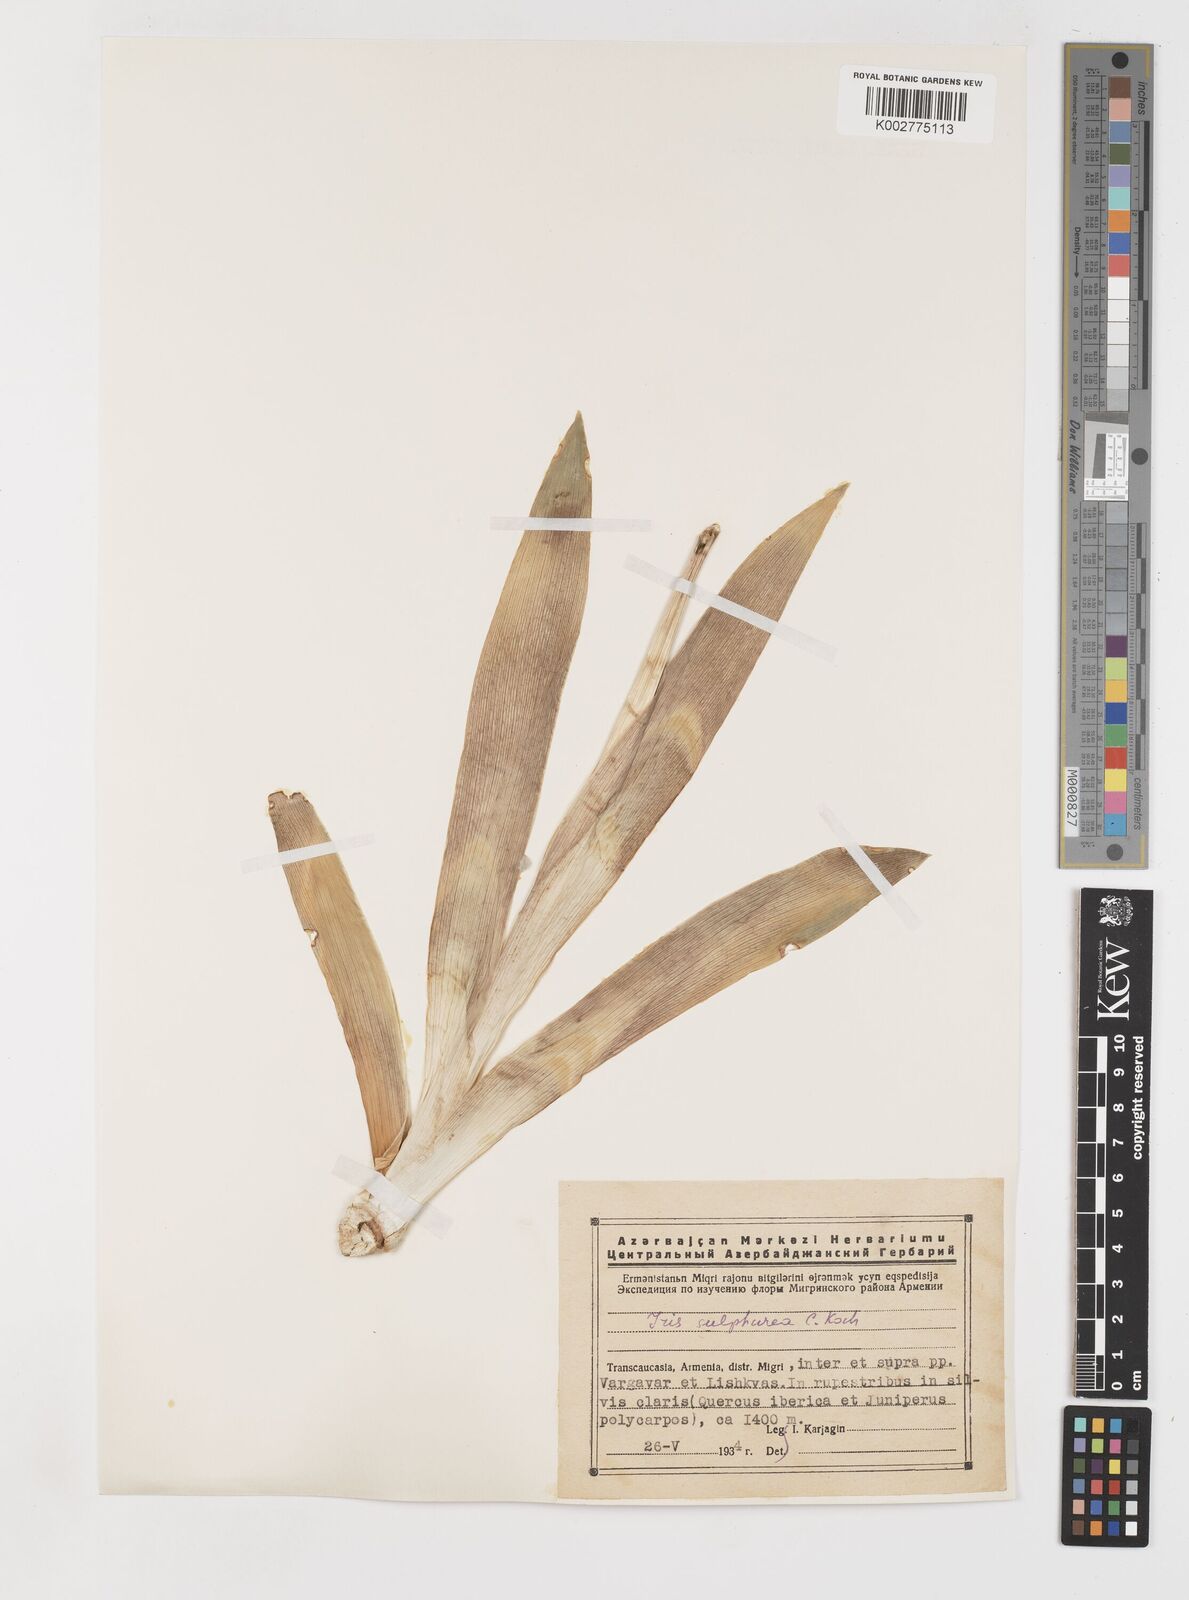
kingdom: Plantae
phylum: Tracheophyta
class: Liliopsida
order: Asparagales
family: Iridaceae
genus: Iris
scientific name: Iris imbricata
